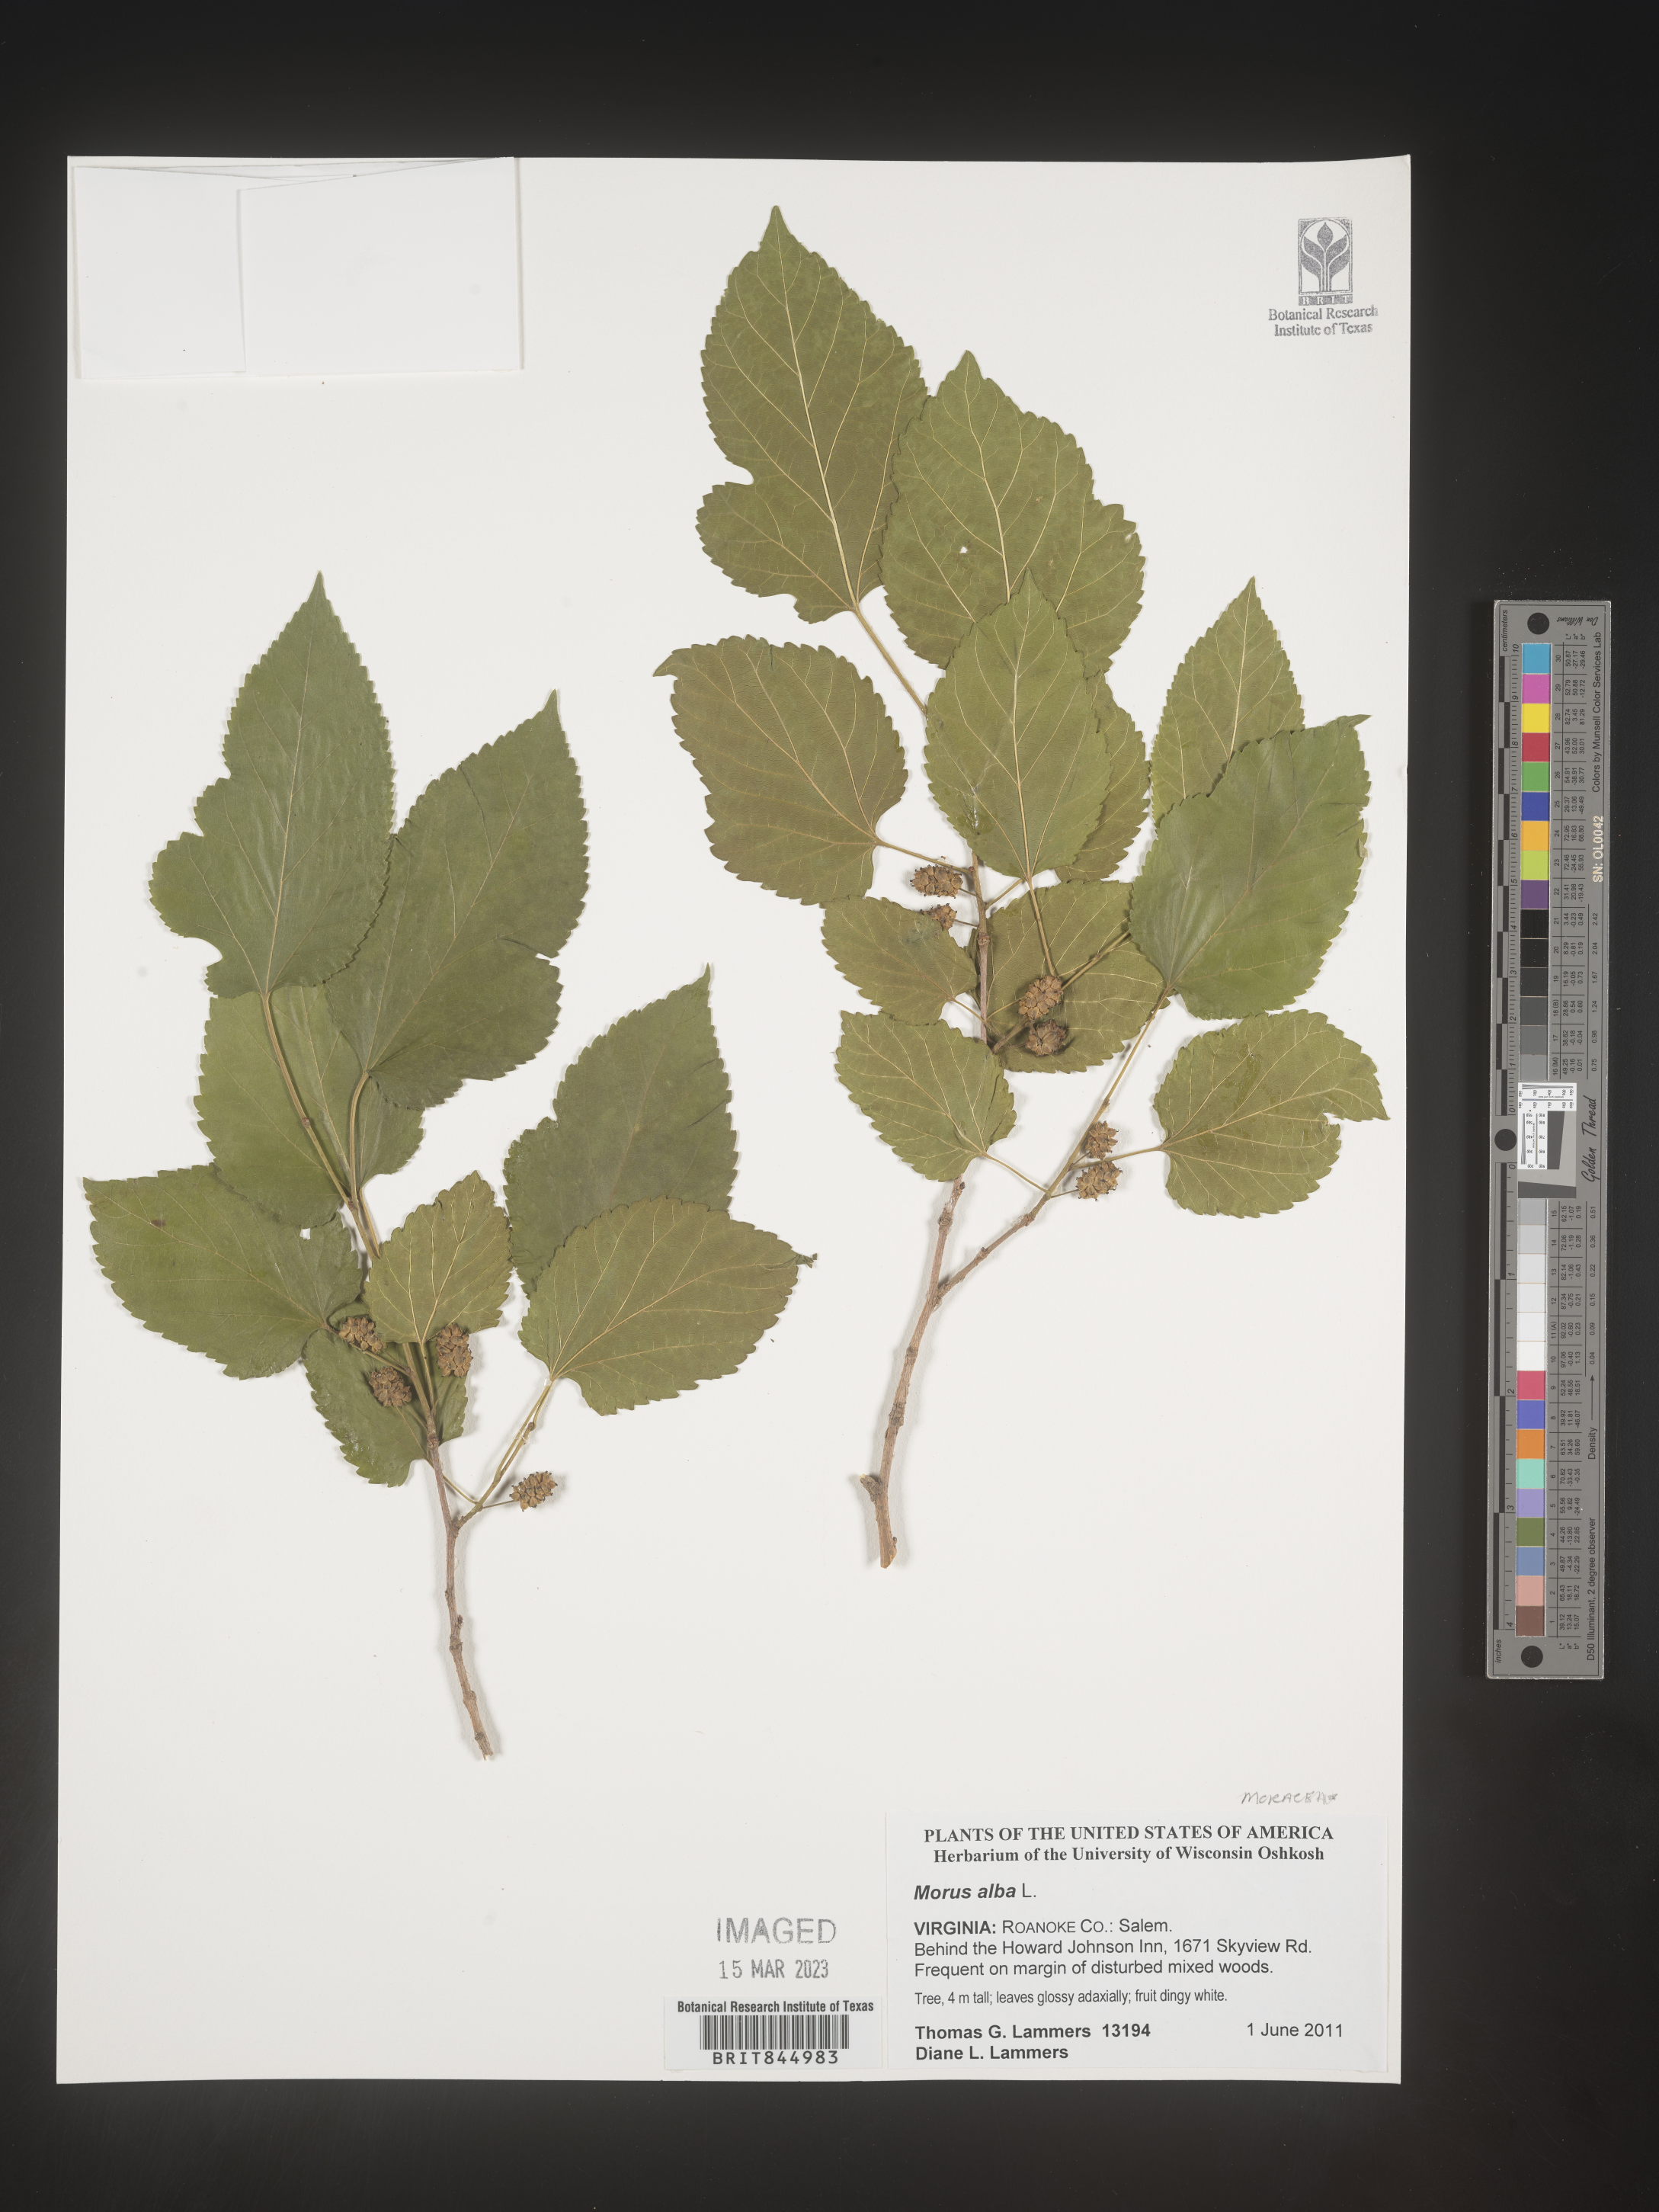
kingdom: Plantae
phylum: Tracheophyta
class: Magnoliopsida
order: Rosales
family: Moraceae
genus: Morus
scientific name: Morus alba
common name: White mulberry
